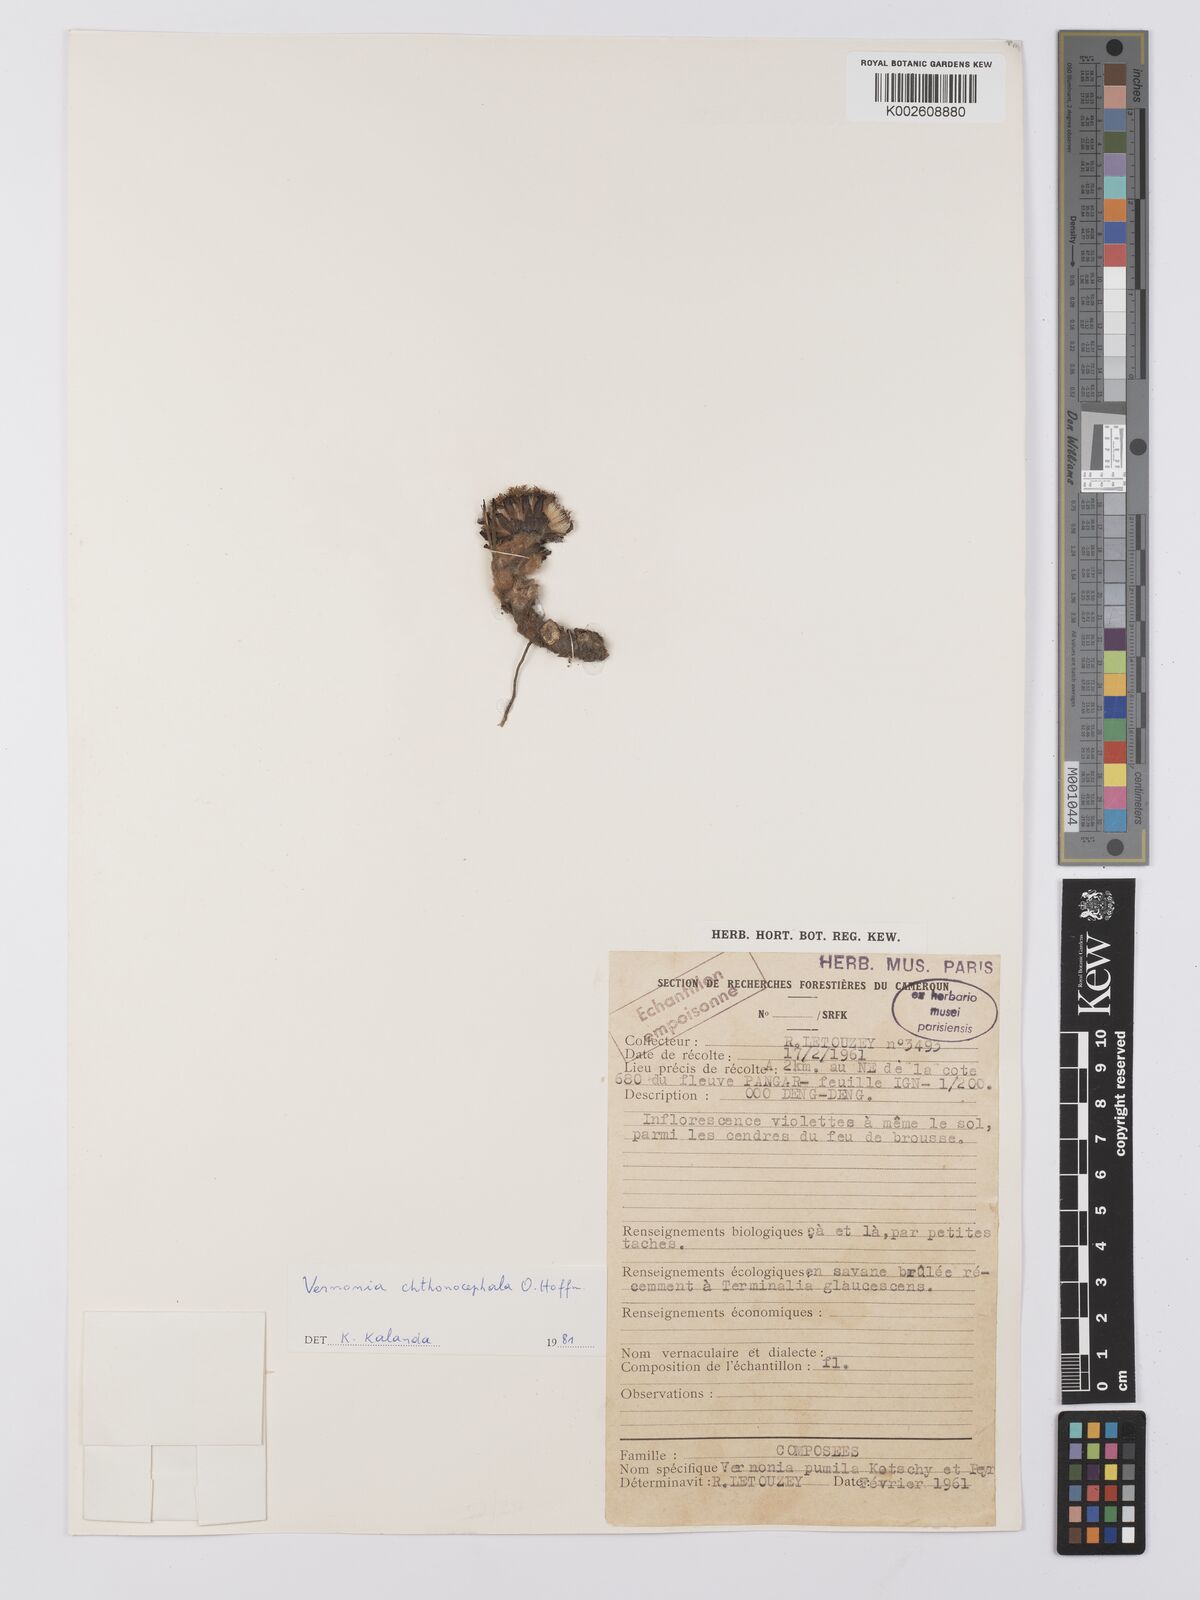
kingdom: Plantae
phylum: Tracheophyta
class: Magnoliopsida
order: Asterales
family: Asteraceae
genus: Vernonella
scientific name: Vernonella chthonocephala
